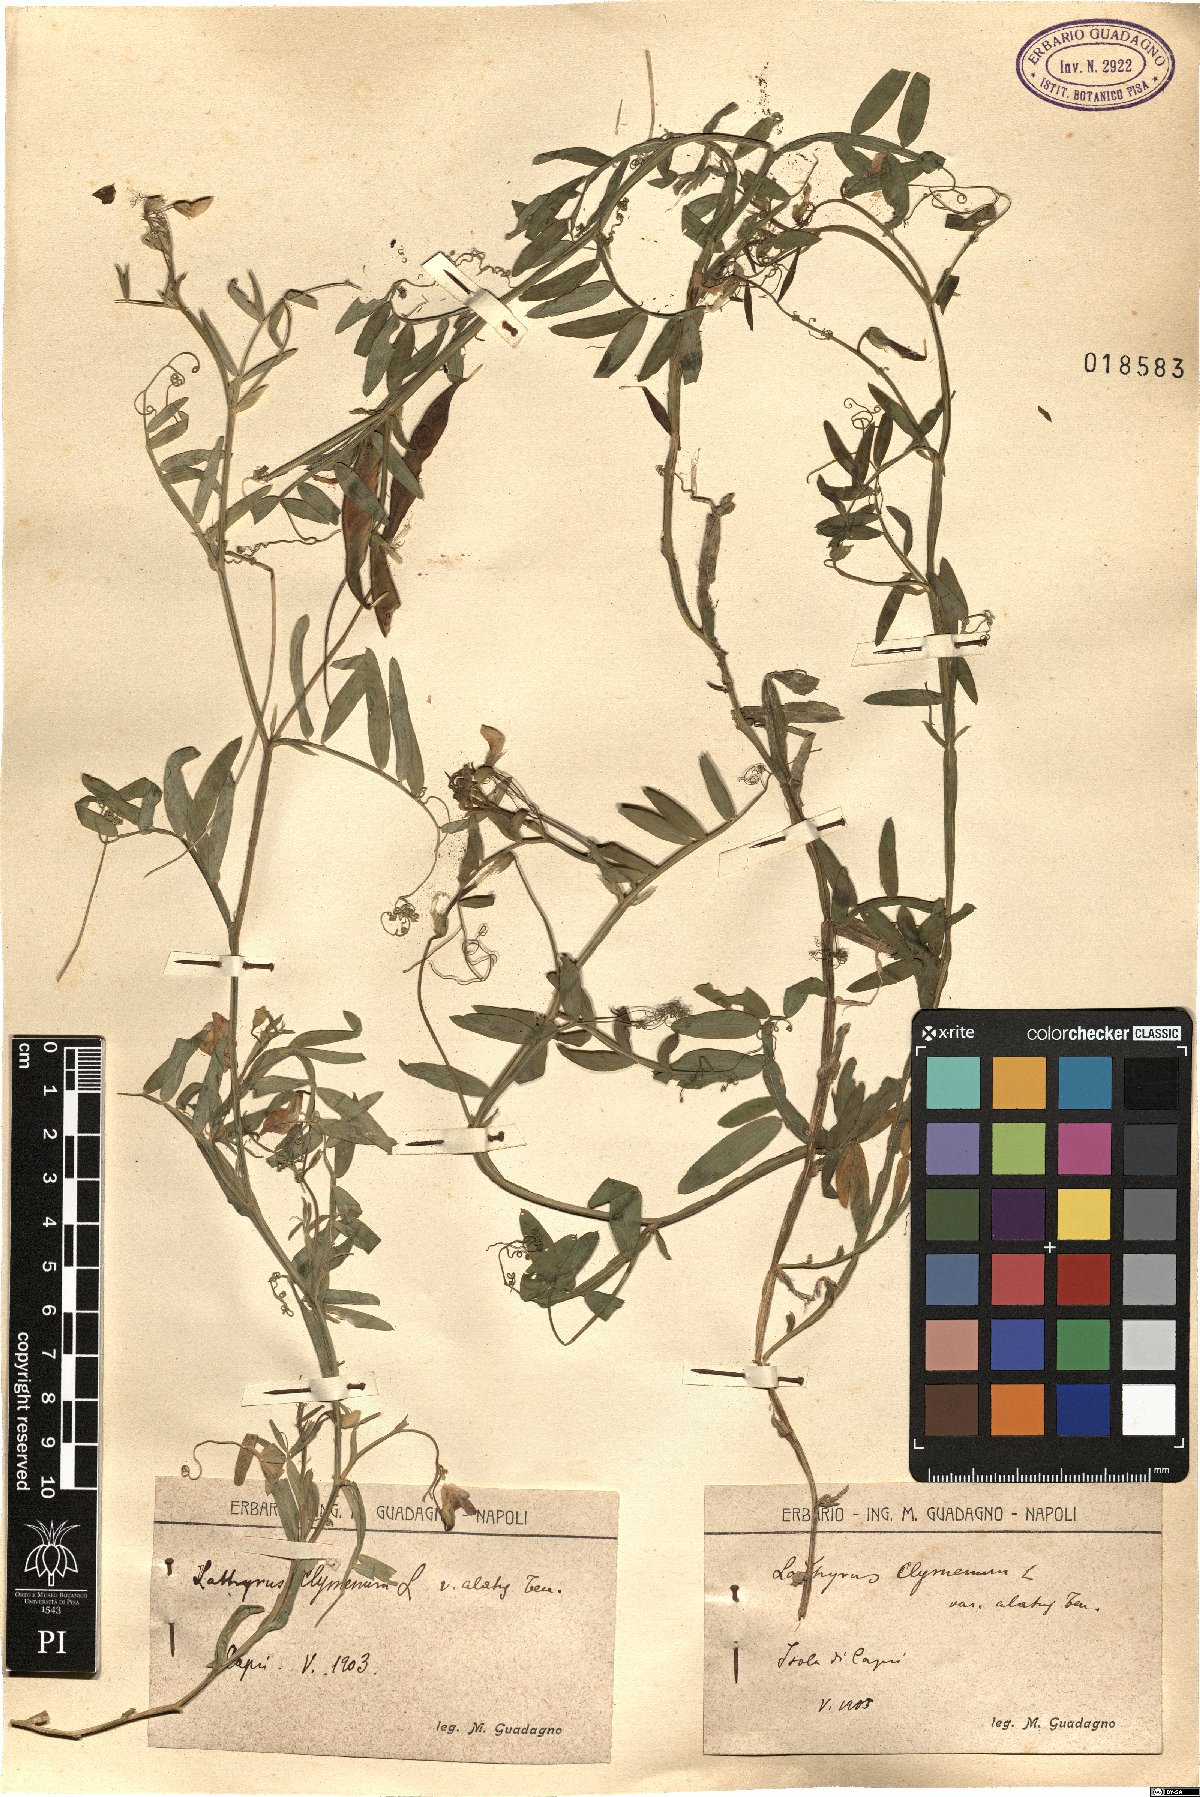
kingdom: Plantae
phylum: Tracheophyta
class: Magnoliopsida
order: Fabales
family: Fabaceae
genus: Lathyrus
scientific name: Lathyrus clymenum
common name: Spanish vetchling
